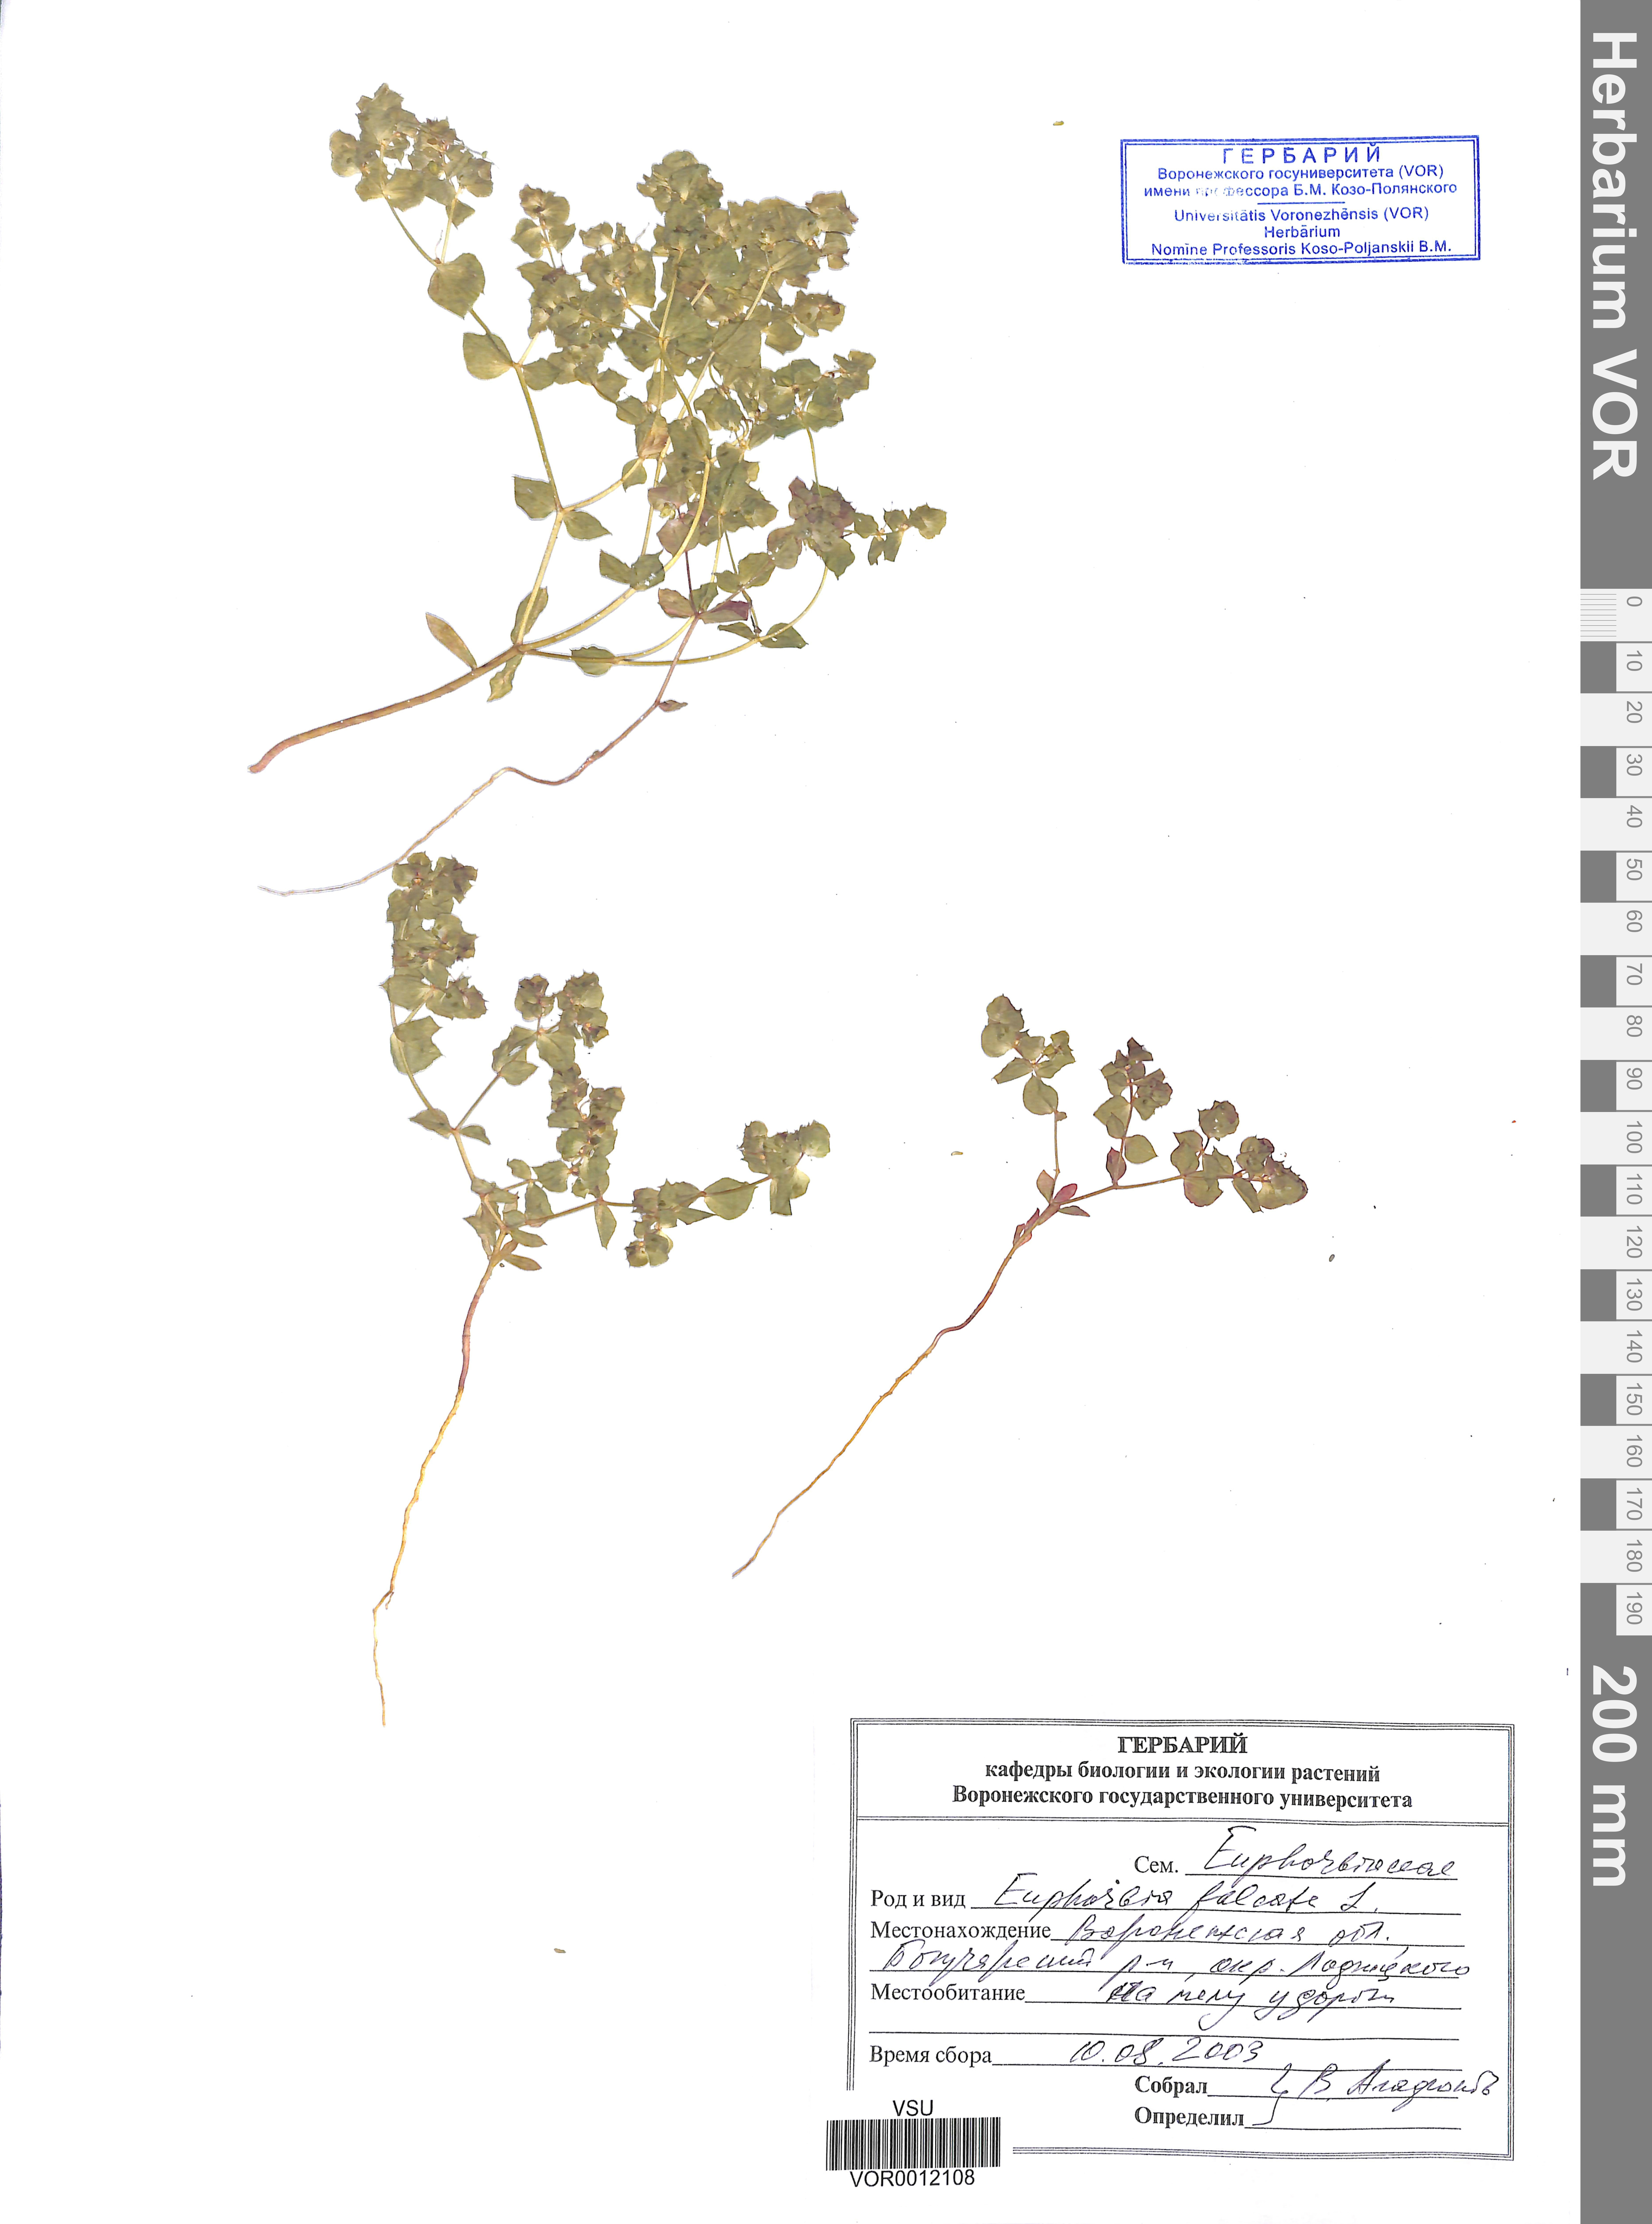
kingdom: Plantae
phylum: Tracheophyta
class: Magnoliopsida
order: Malpighiales
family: Euphorbiaceae
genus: Euphorbia
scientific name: Euphorbia falcata
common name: Sickle spurge
